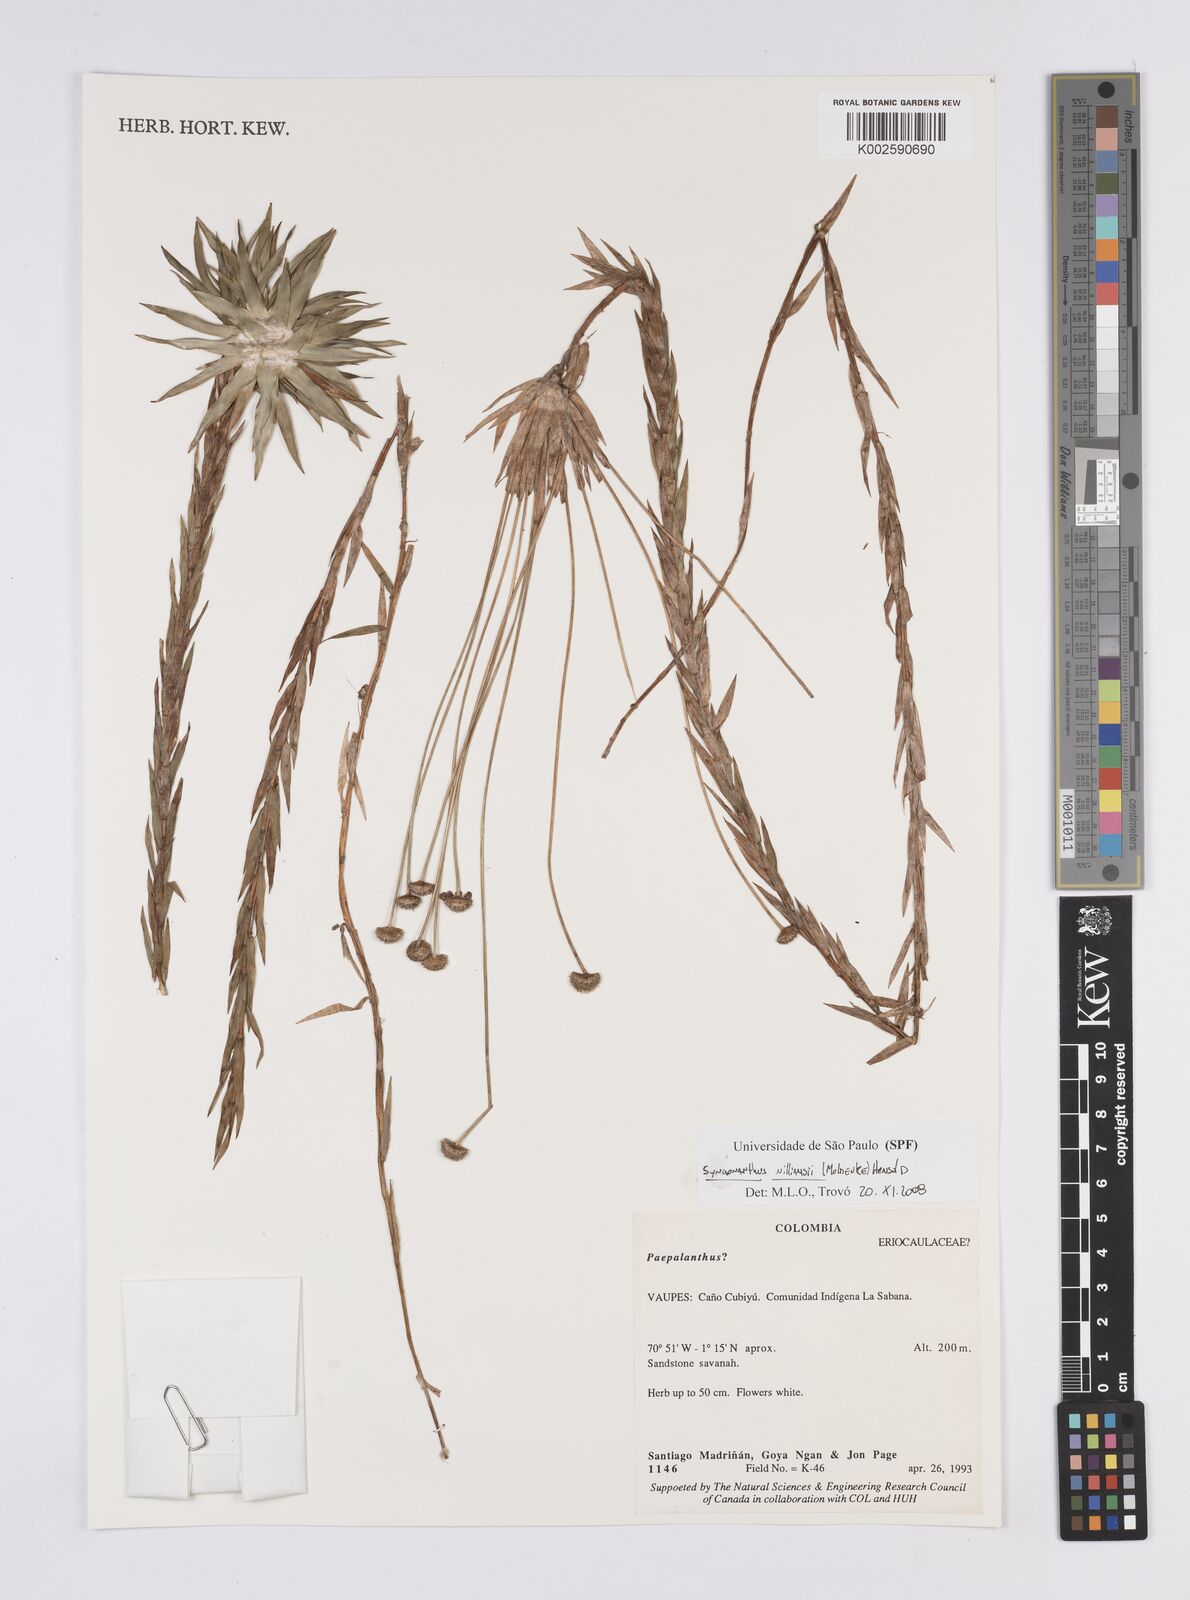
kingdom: Plantae
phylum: Tracheophyta
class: Liliopsida
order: Poales
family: Eriocaulaceae
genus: Syngonanthus
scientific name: Syngonanthus williamsii
